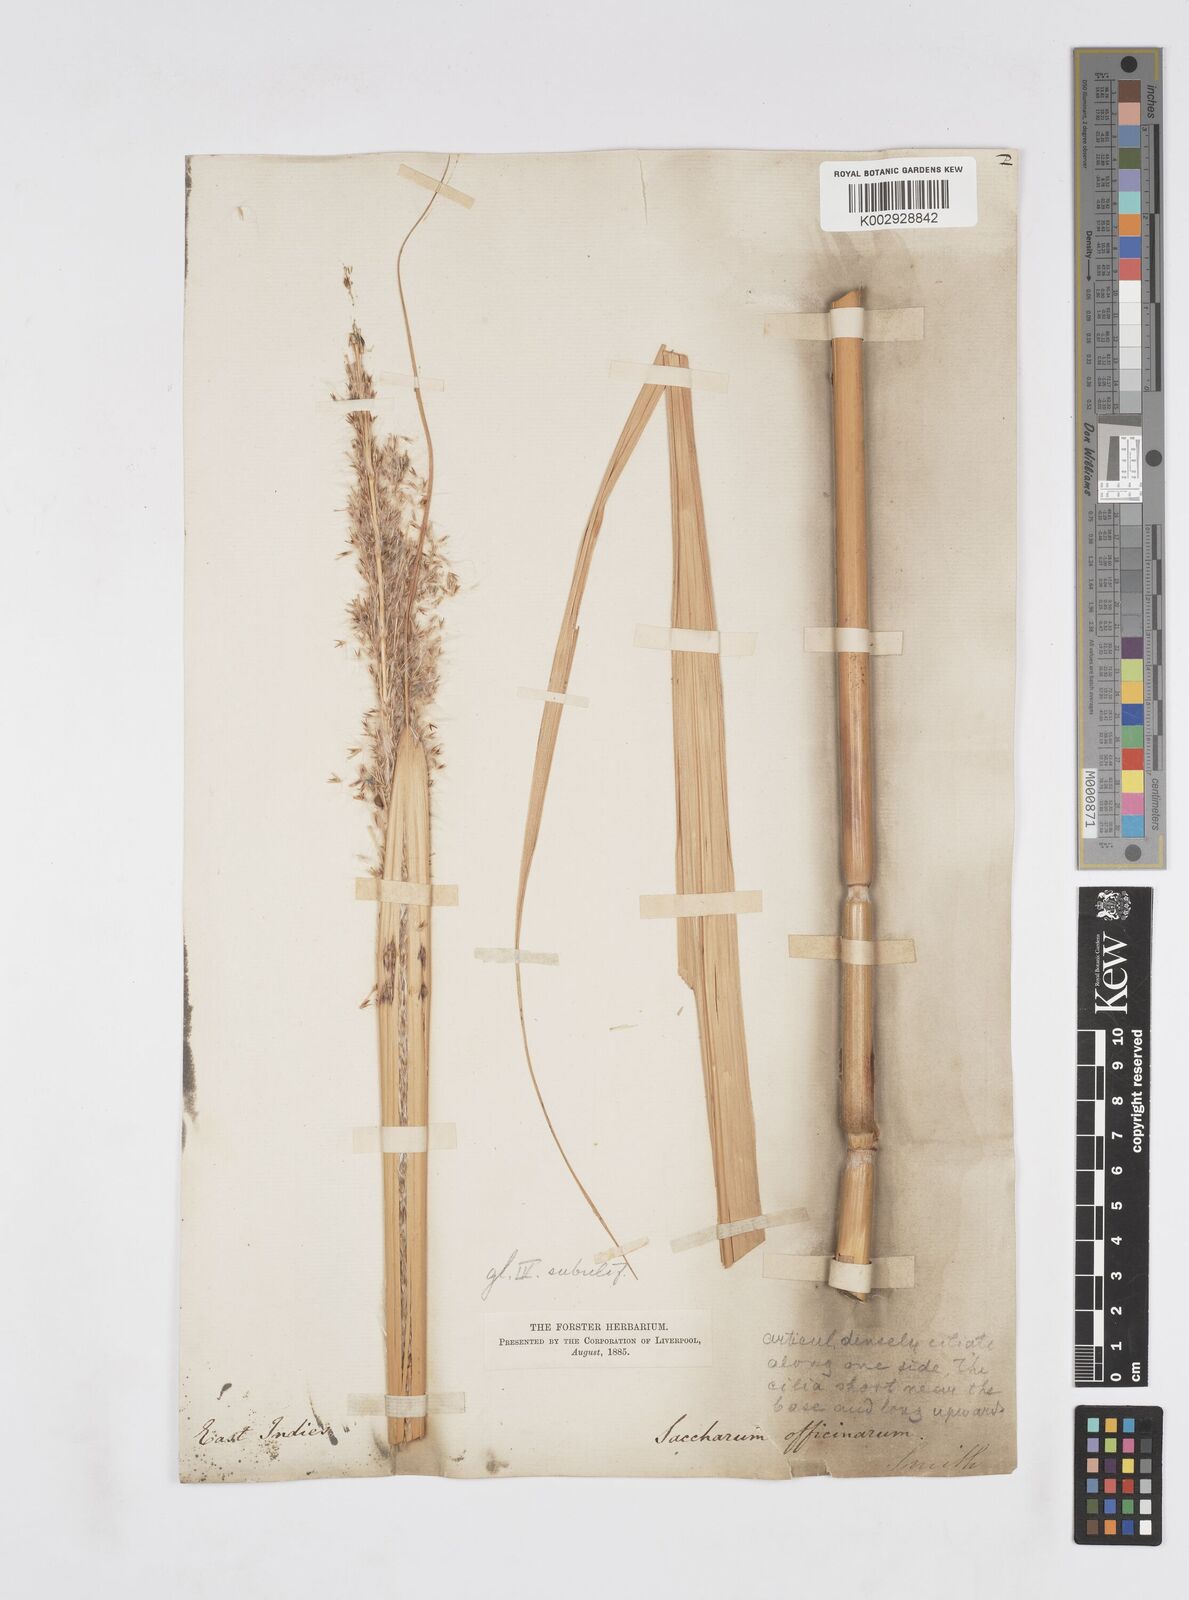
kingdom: Plantae
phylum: Tracheophyta
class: Liliopsida
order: Poales
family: Poaceae
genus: Saccharum
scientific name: Saccharum officinarum
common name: Sugarcane
